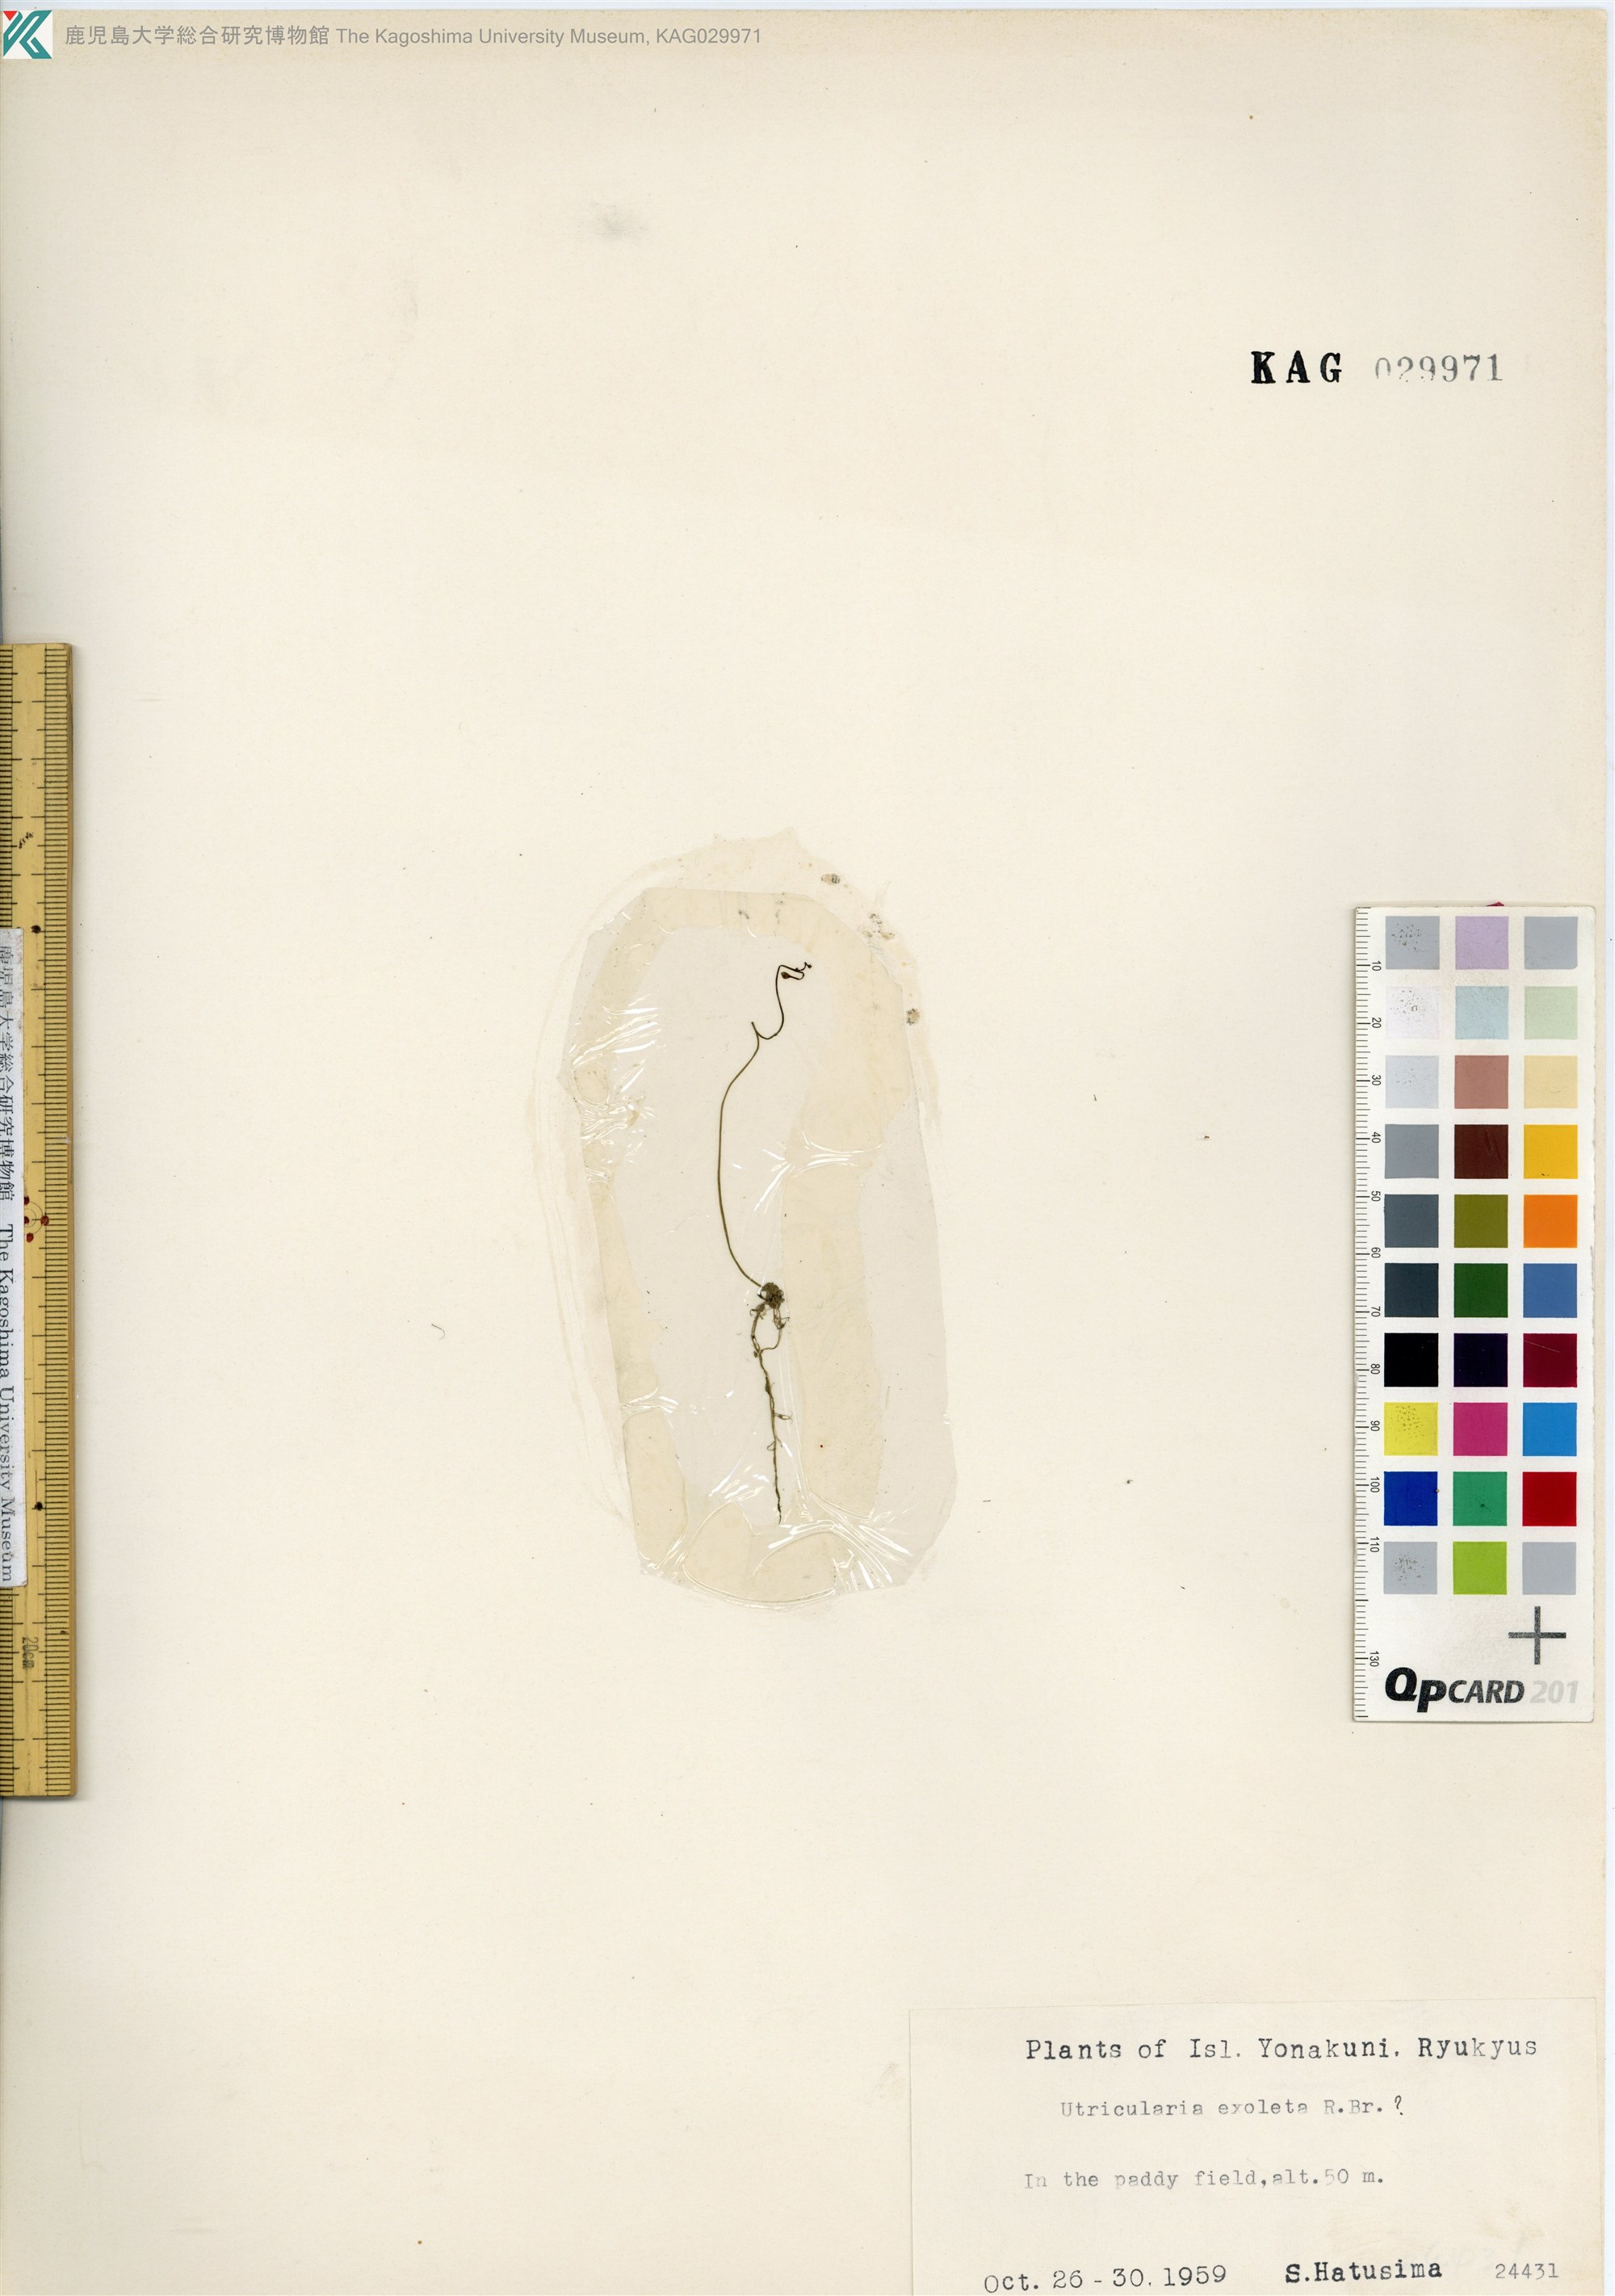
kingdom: Plantae
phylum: Tracheophyta
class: Magnoliopsida
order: Lamiales
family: Lentibulariaceae
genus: Utricularia
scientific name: Utricularia gibba
